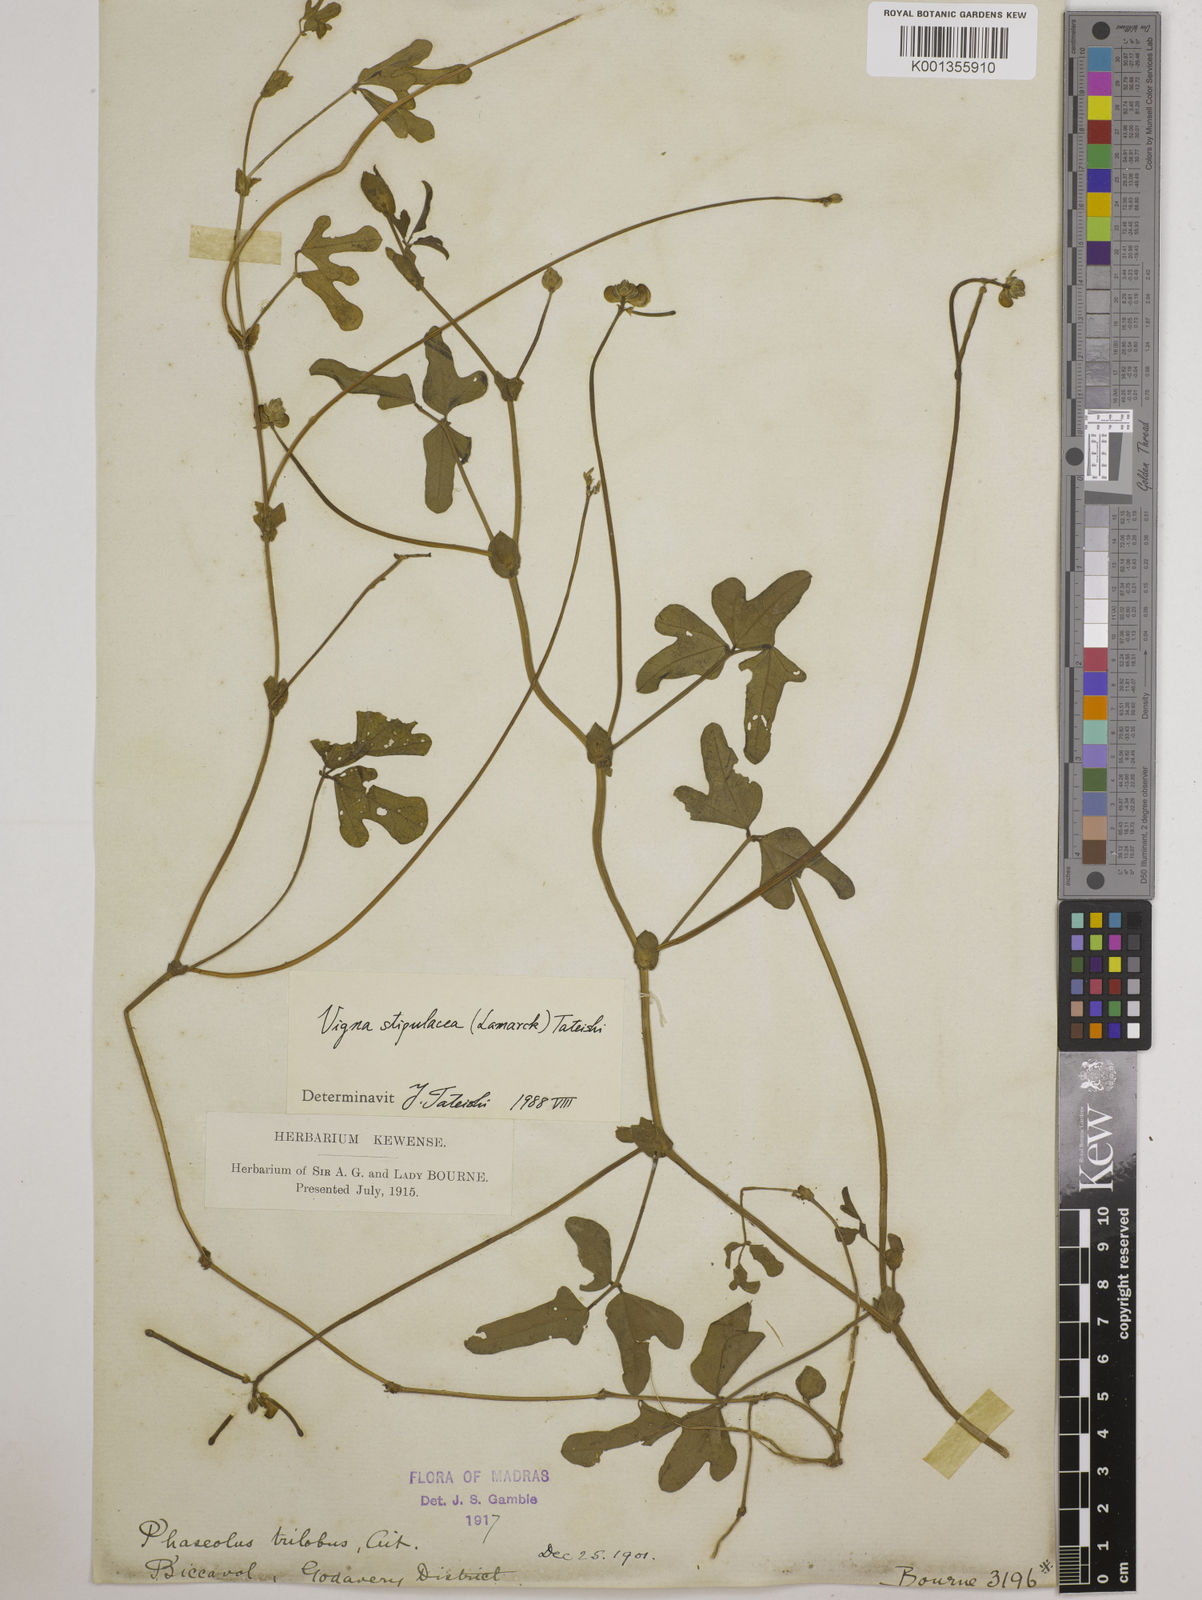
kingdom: Plantae
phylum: Tracheophyta
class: Magnoliopsida
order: Fabales
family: Fabaceae
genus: Pueraria
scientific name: Pueraria montana
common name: Kudzu
